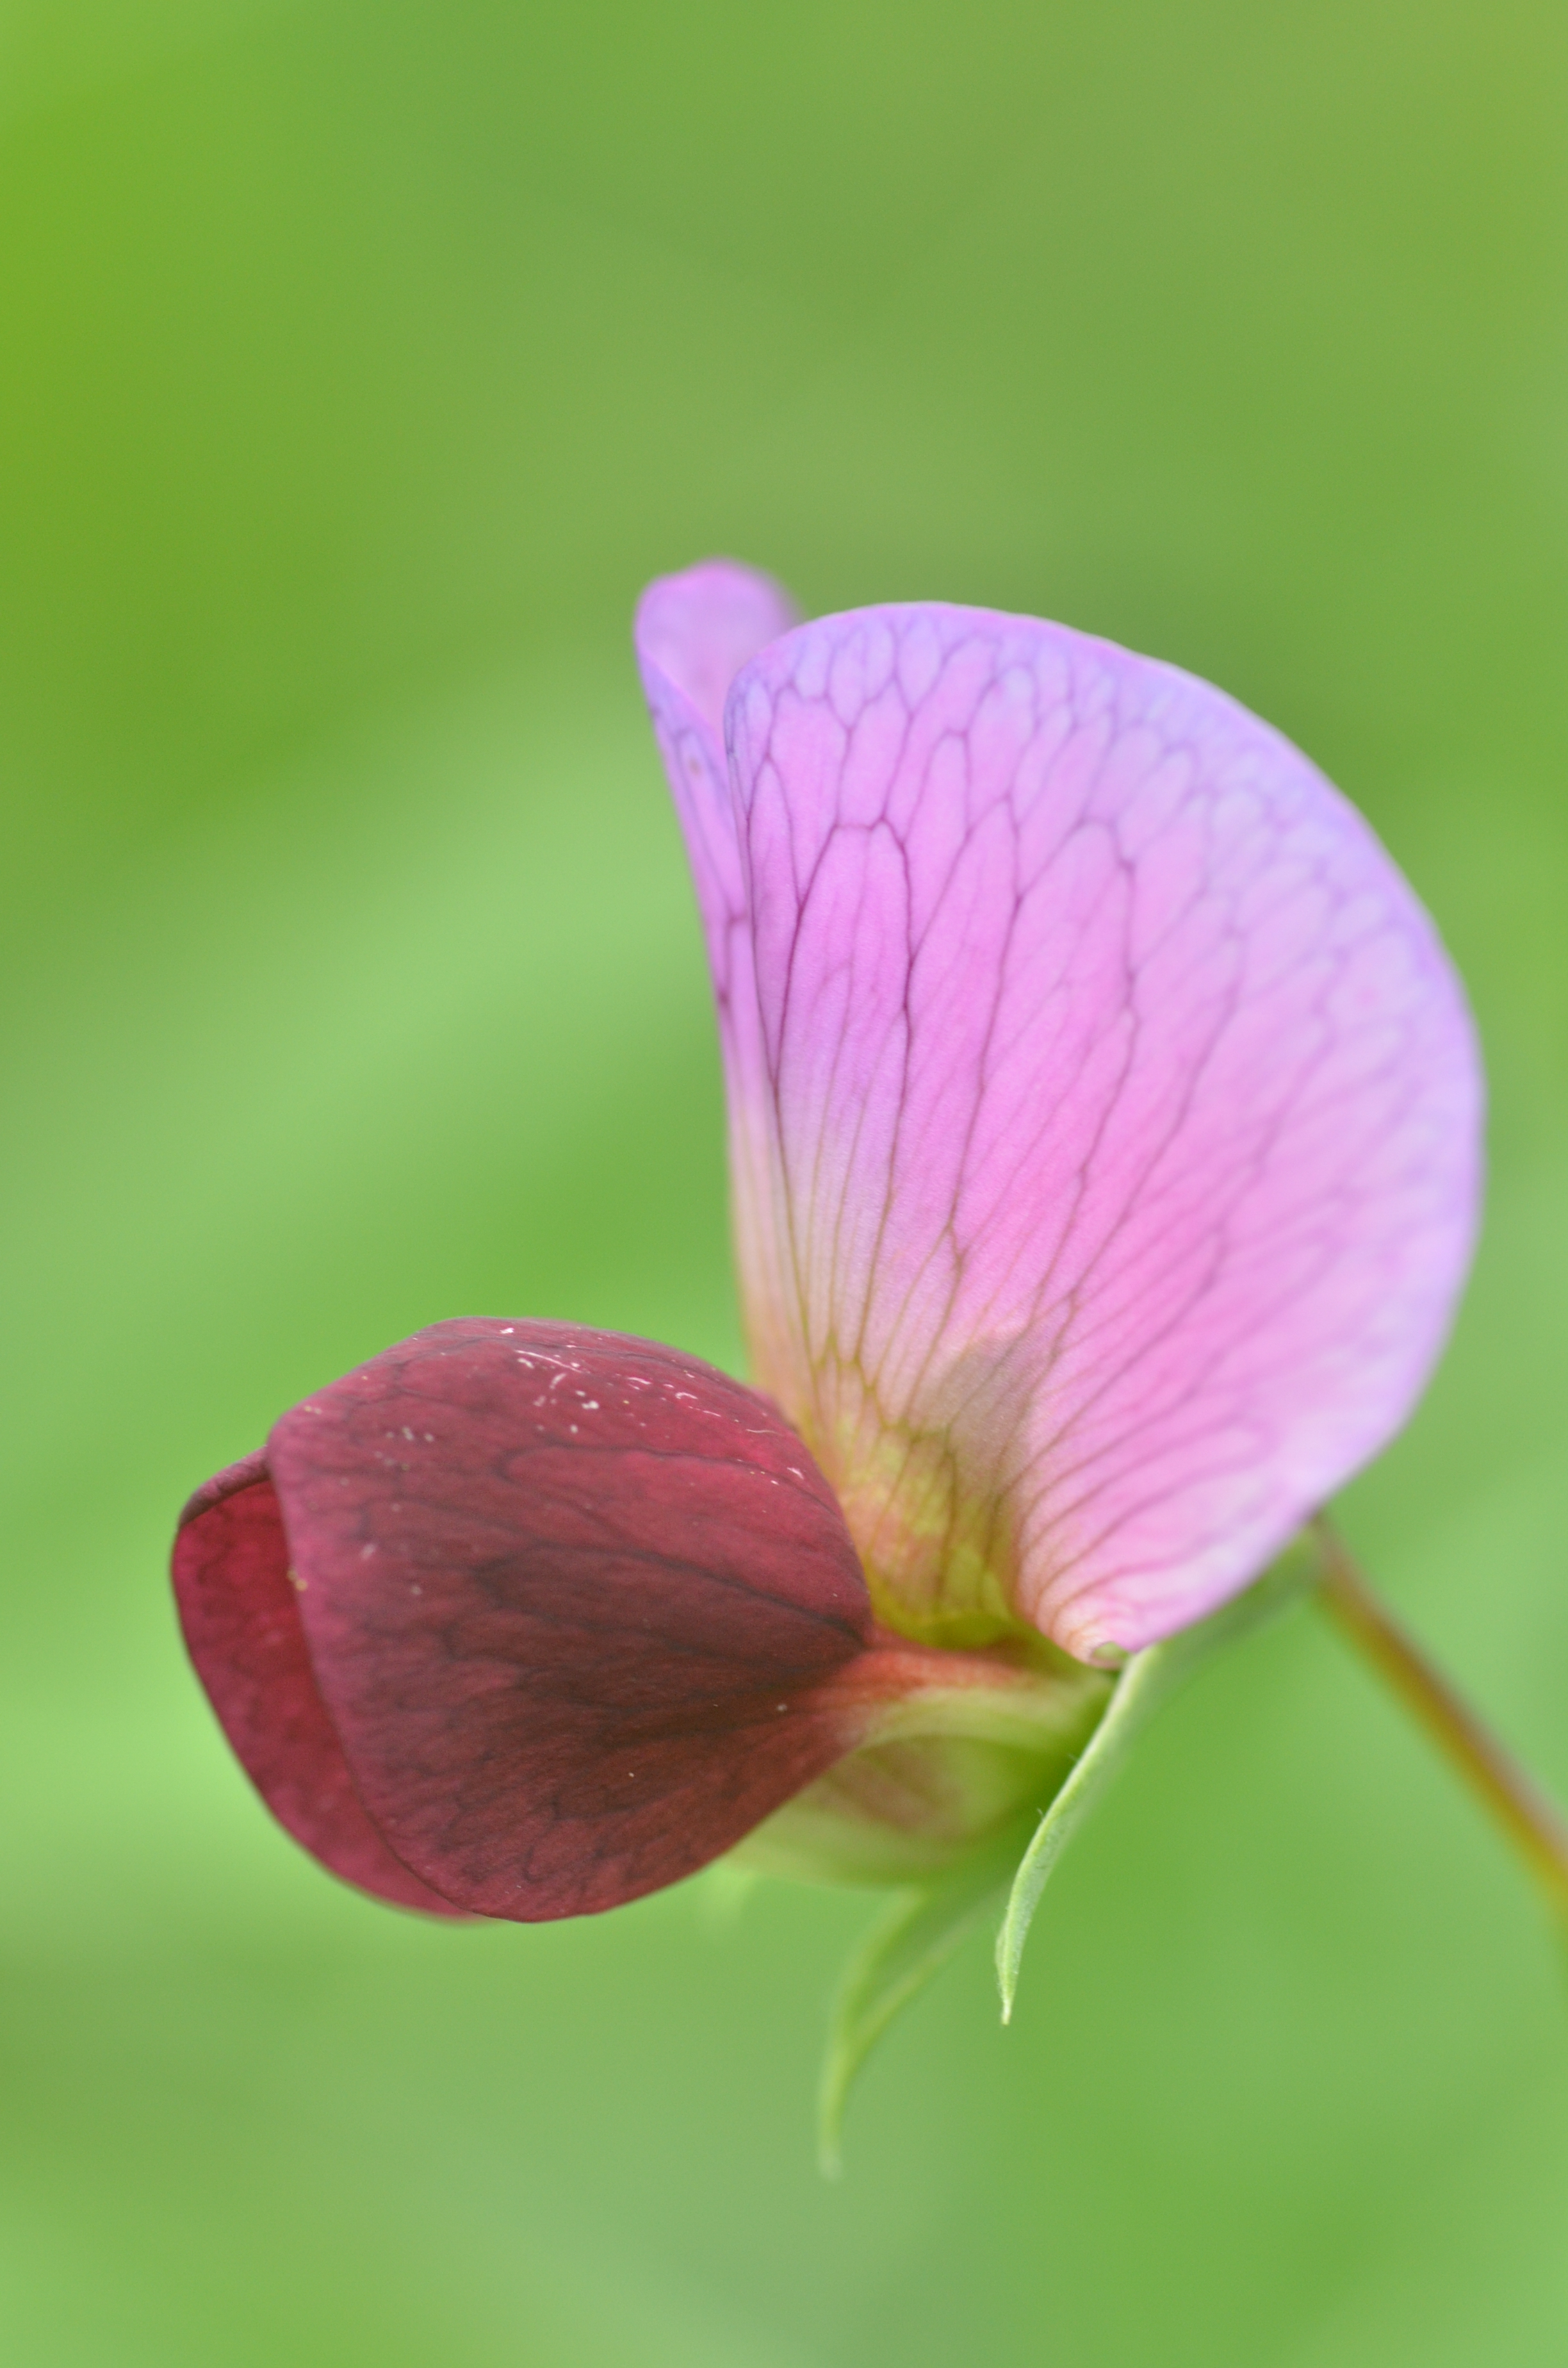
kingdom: Plantae
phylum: Tracheophyta
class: Magnoliopsida
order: Fabales
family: Fabaceae
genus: Lathyrus
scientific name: Lathyrus oleraceus
